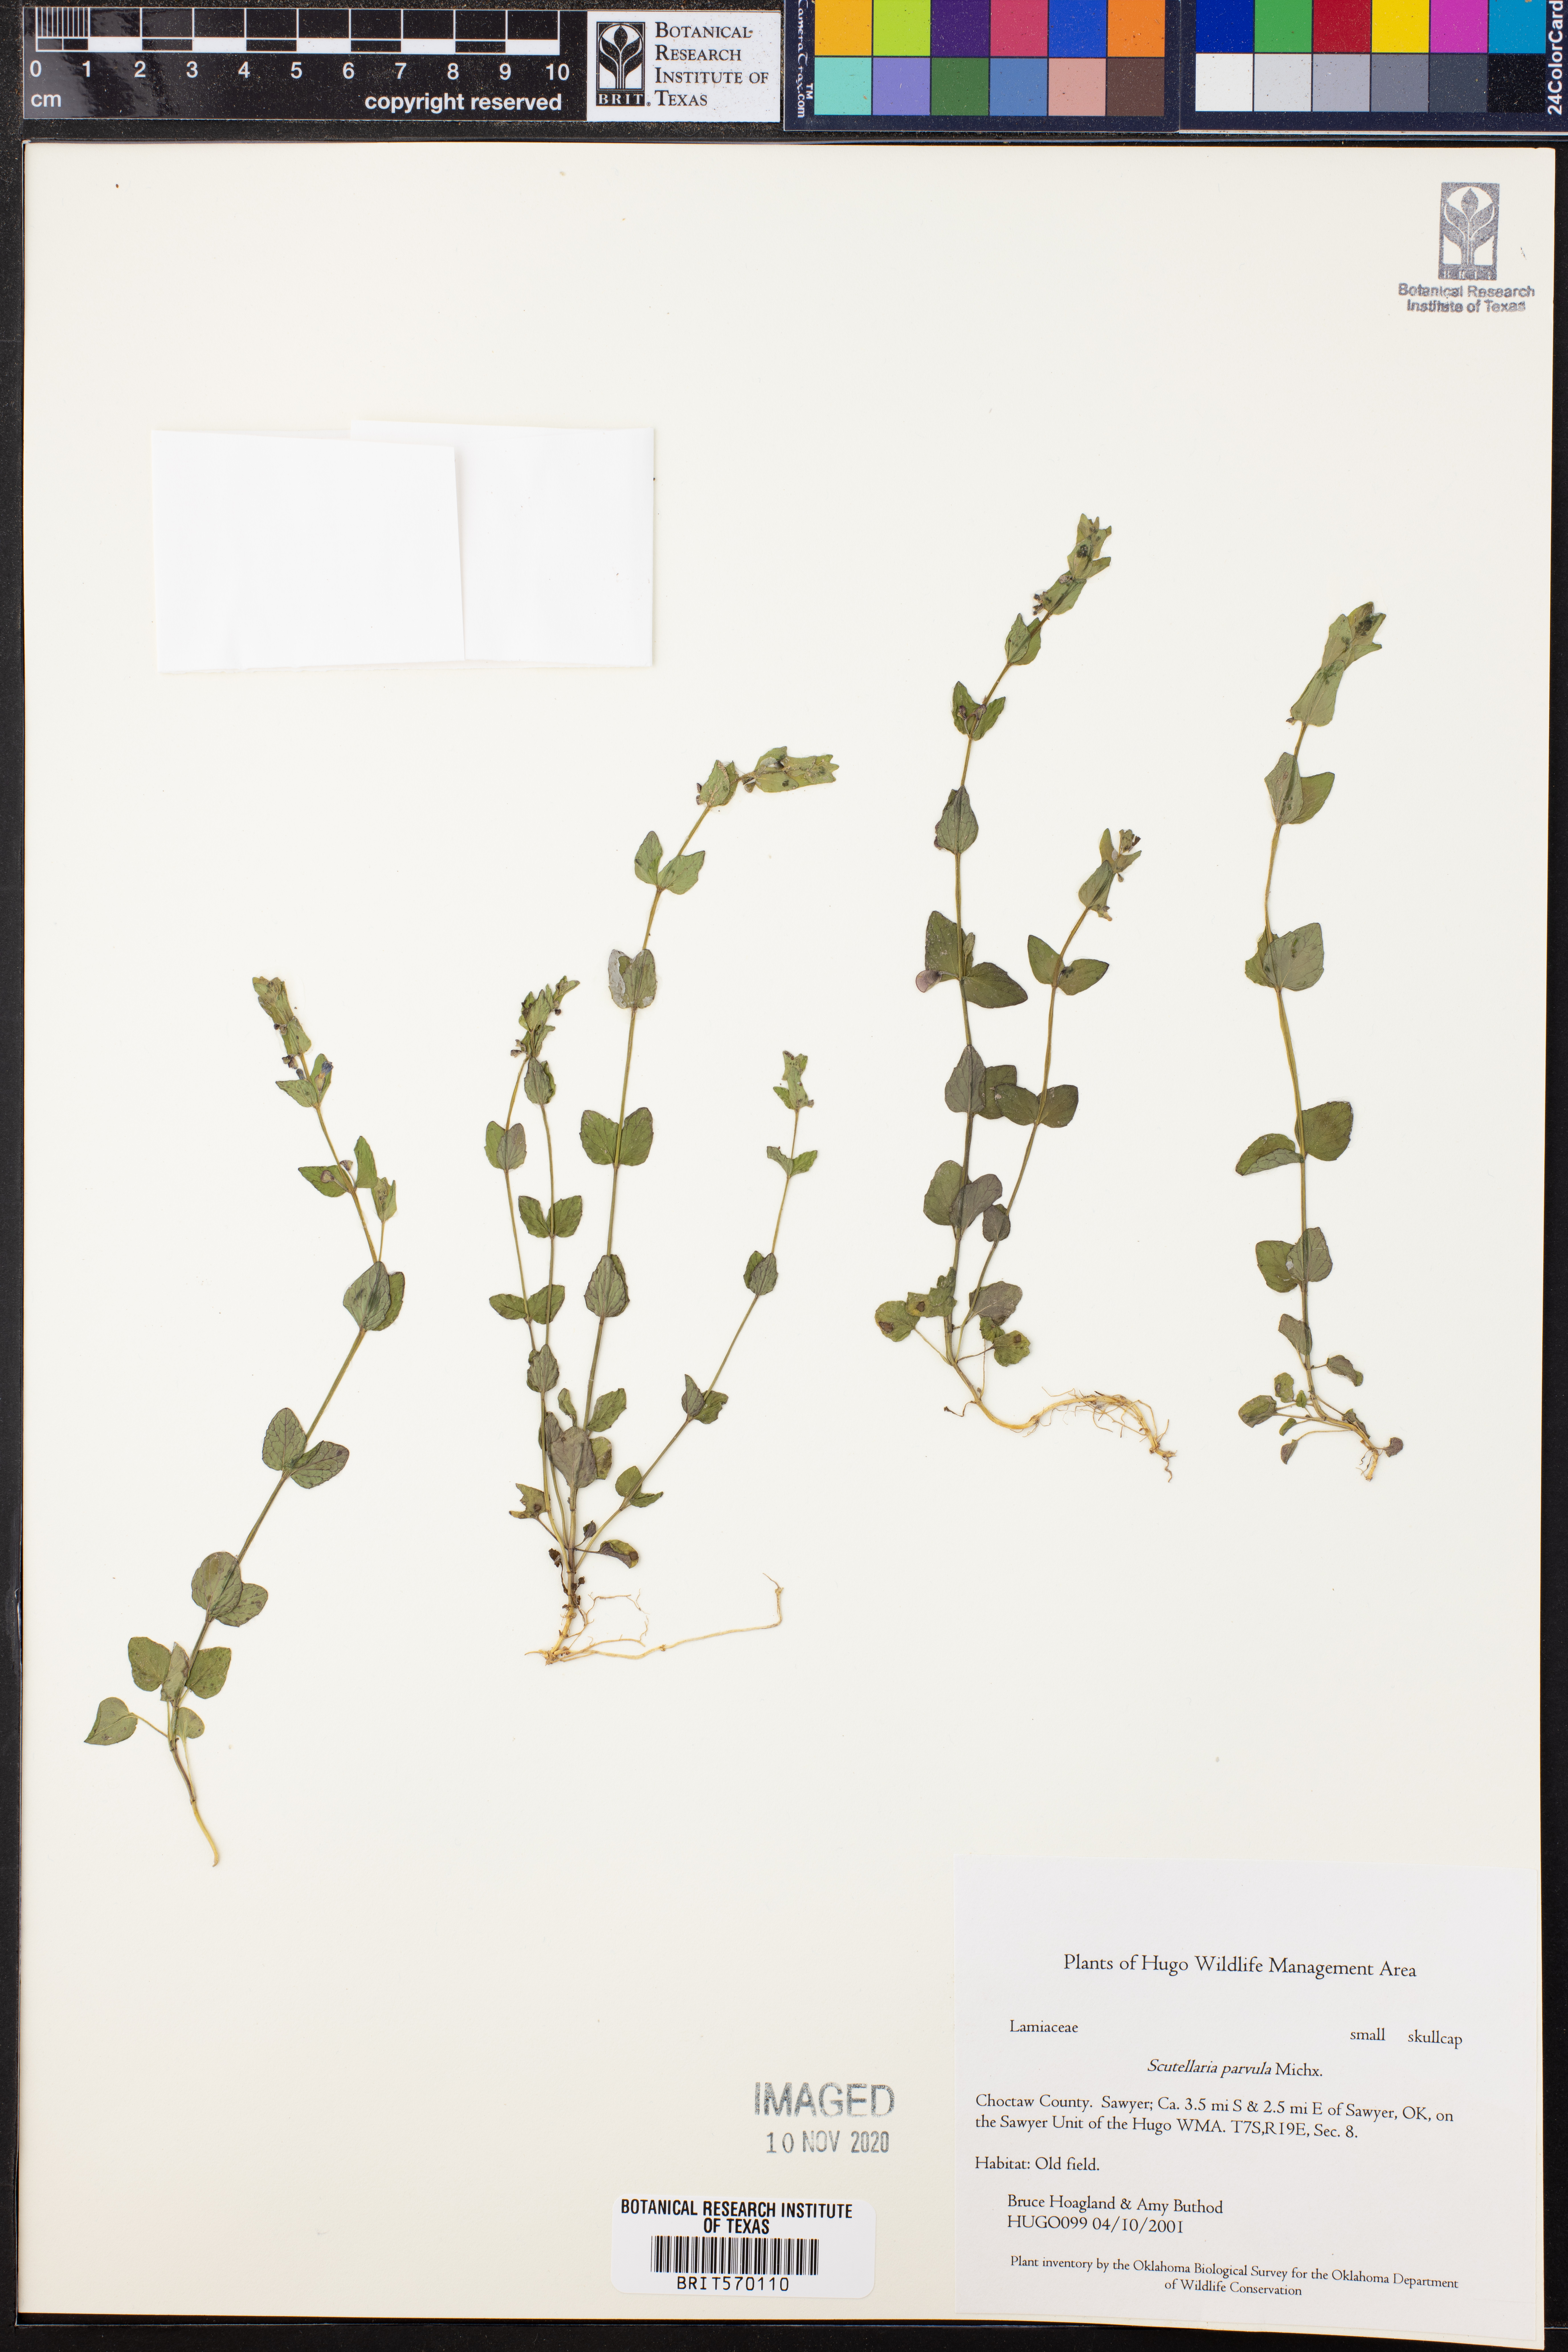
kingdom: Plantae
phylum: Tracheophyta
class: Magnoliopsida
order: Lamiales
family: Lamiaceae
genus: Scutellaria
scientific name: Scutellaria parvula
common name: Little scullcap
